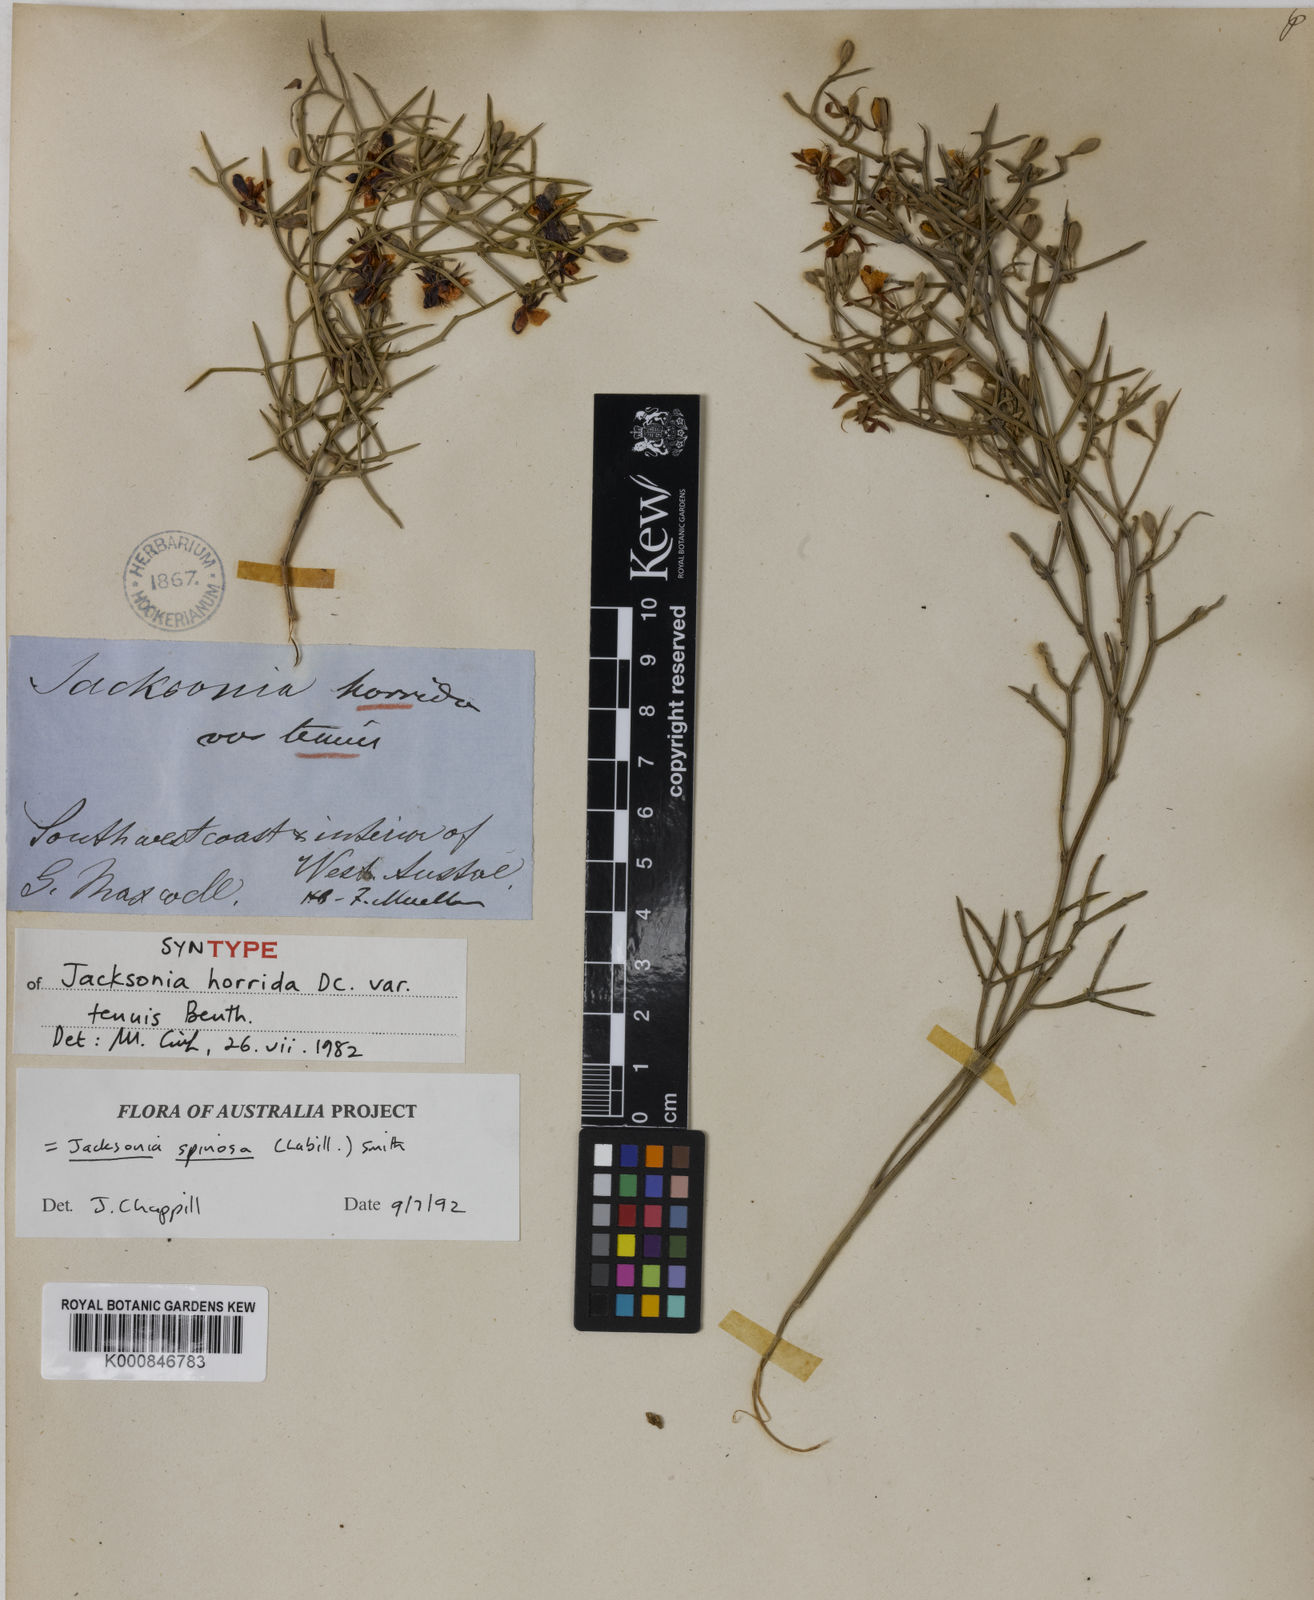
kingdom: Plantae
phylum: Tracheophyta
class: Magnoliopsida
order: Fabales
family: Fabaceae
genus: Jacksonia
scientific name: Jacksonia horrida
